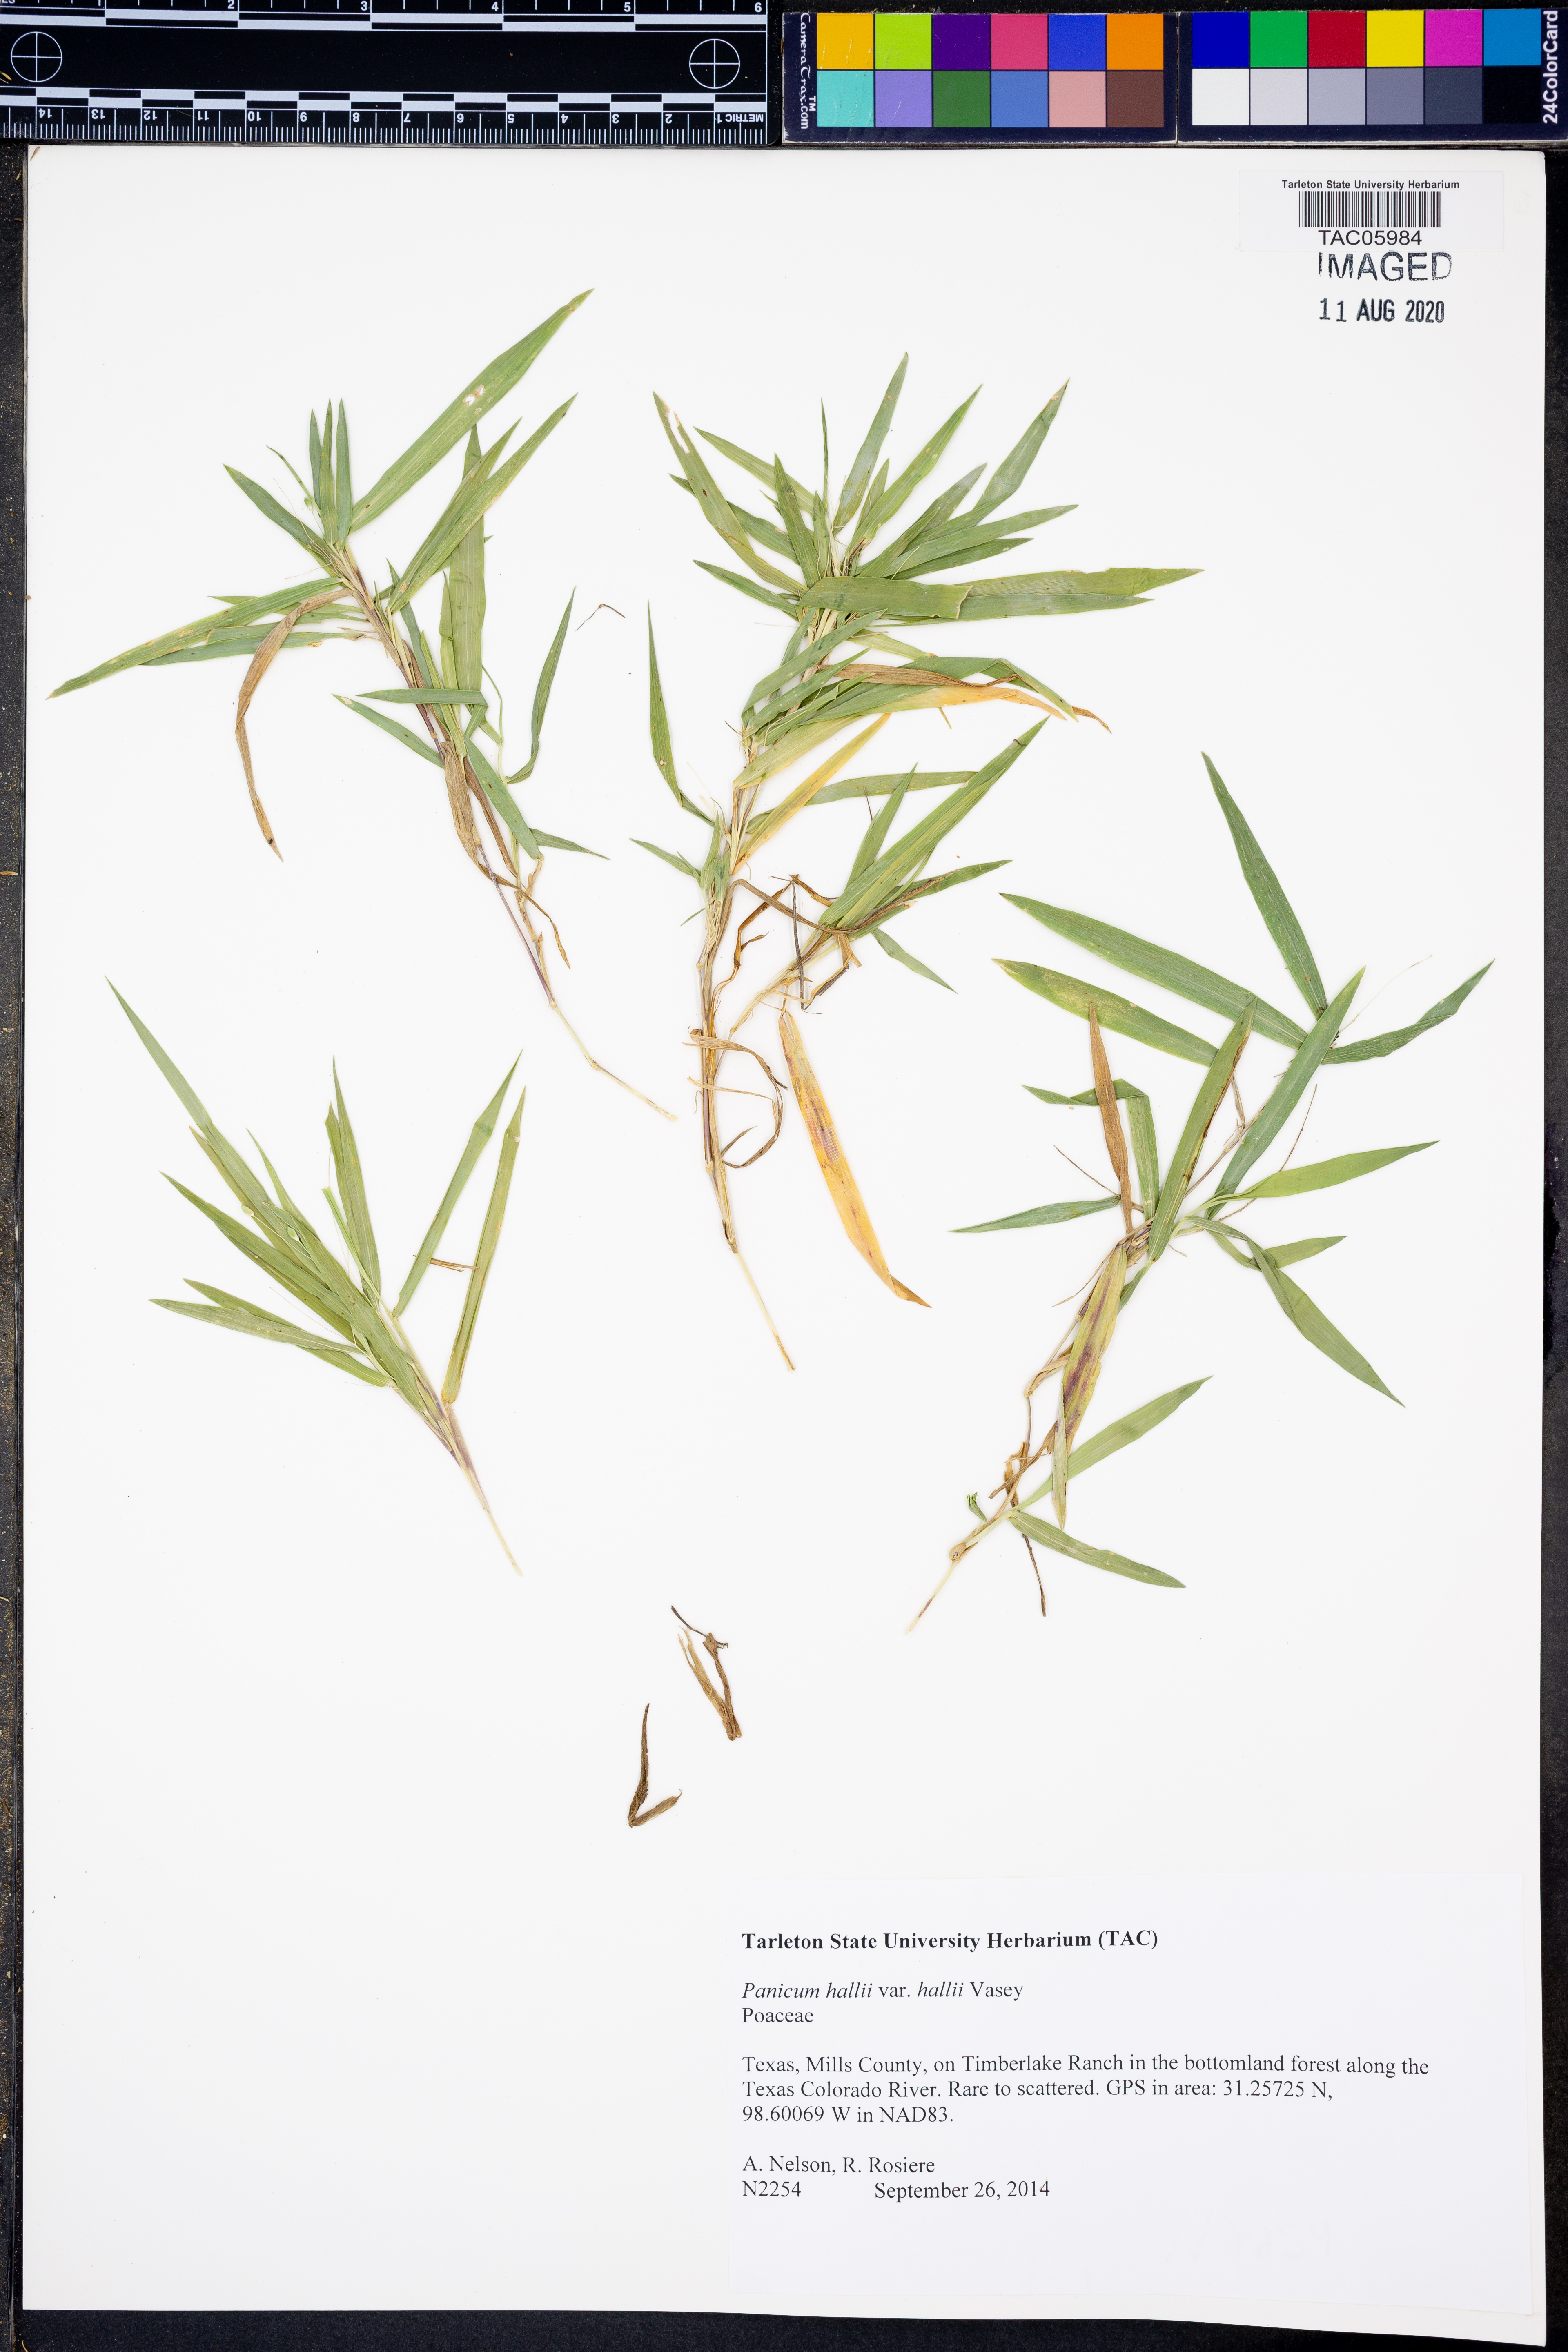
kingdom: Plantae
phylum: Tracheophyta
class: Liliopsida
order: Poales
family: Poaceae
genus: Panicum
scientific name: Panicum hallii
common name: Hall's witchgrass
